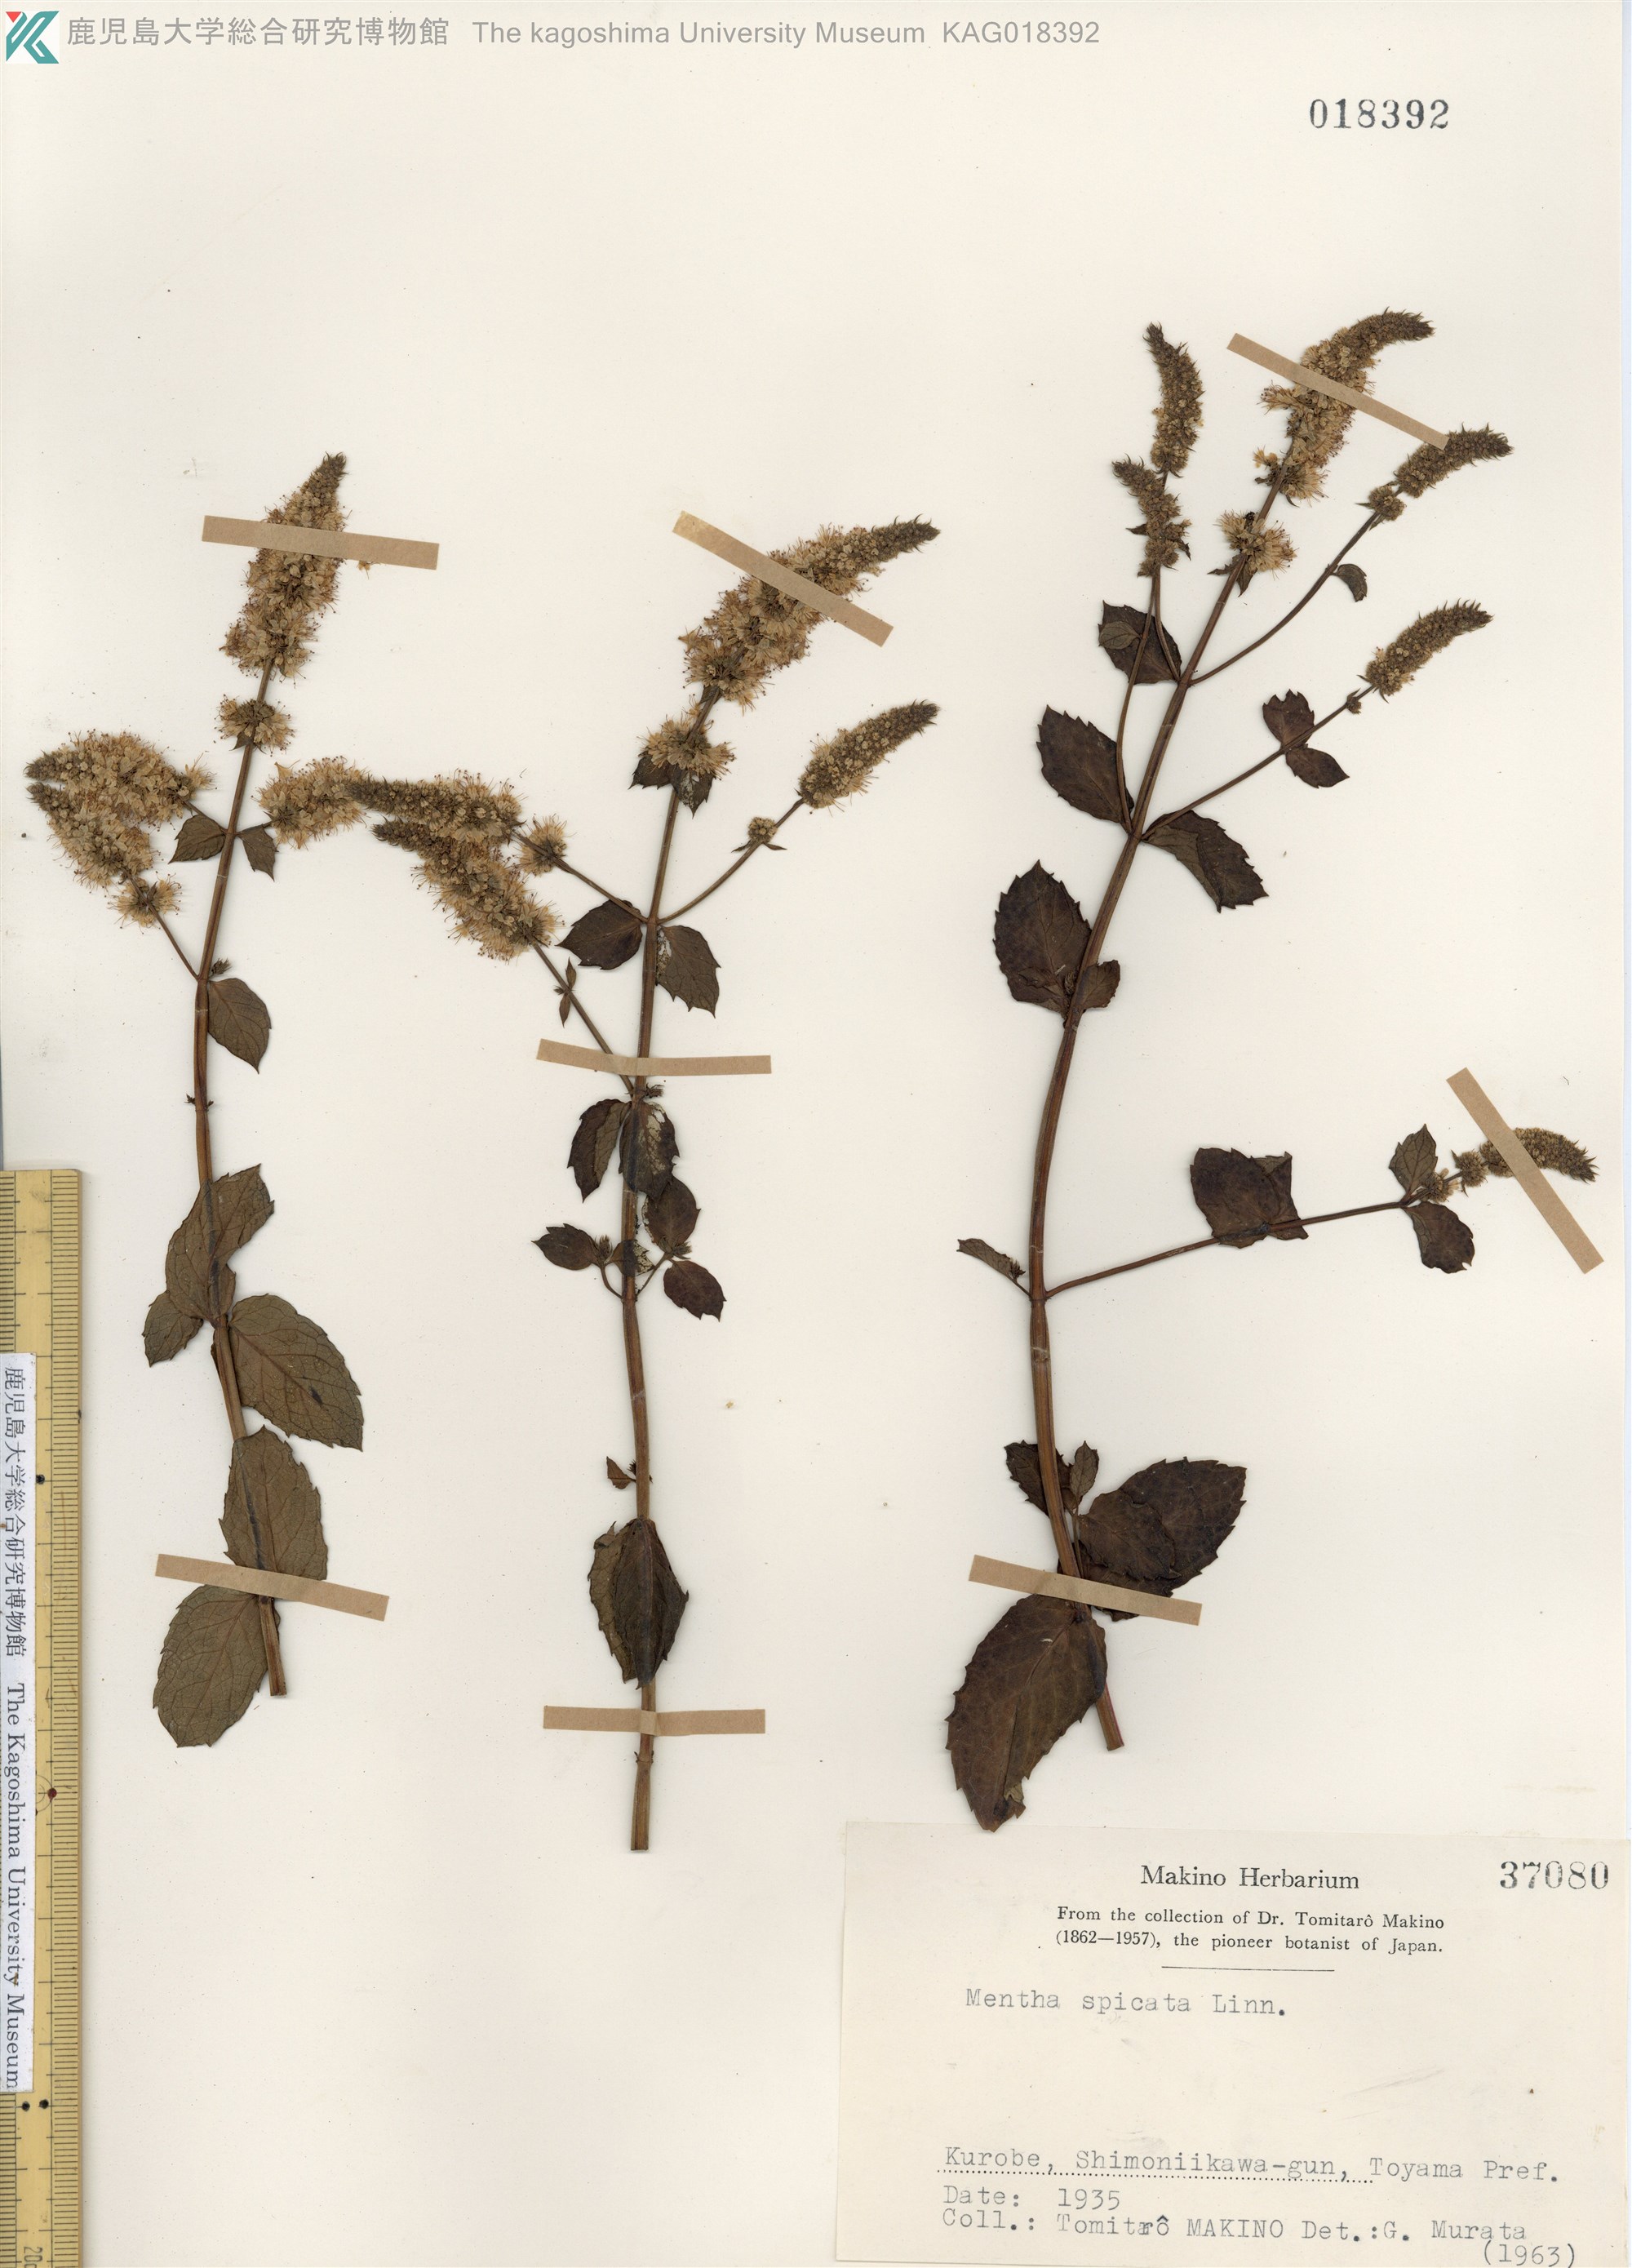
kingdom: Plantae
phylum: Tracheophyta
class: Magnoliopsida
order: Lamiales
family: Lamiaceae
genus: Mentha
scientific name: Mentha spicata
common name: Spearmint
